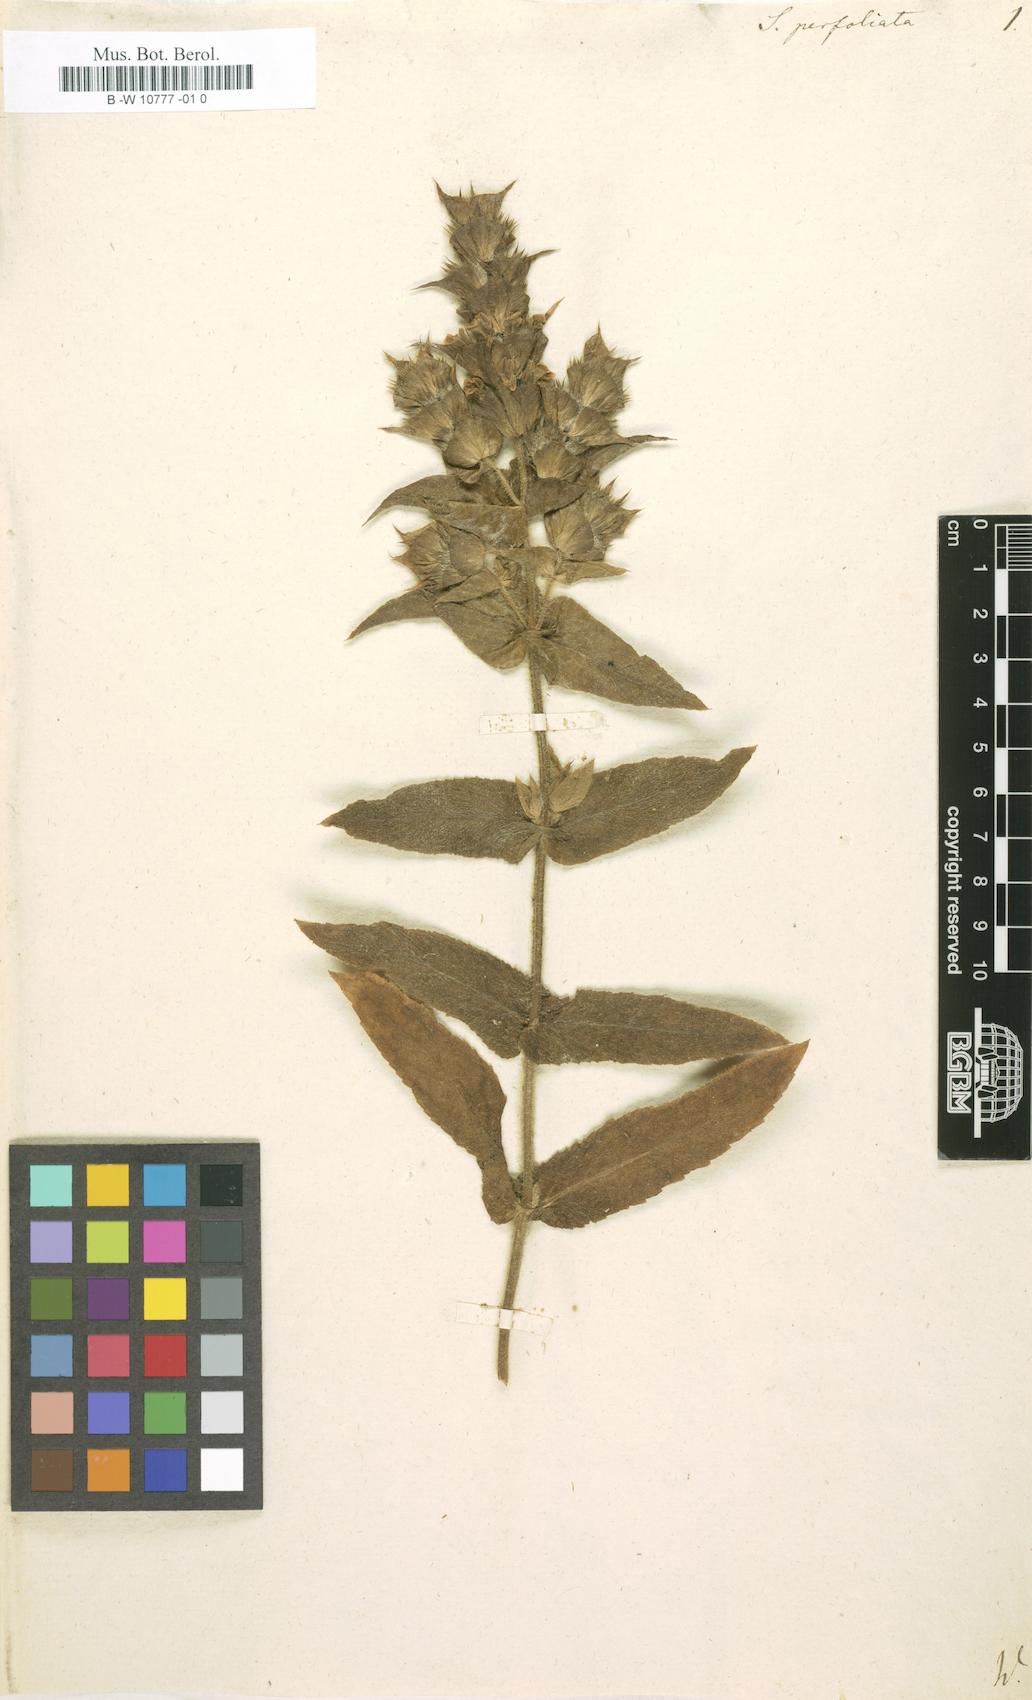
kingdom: Plantae
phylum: Tracheophyta
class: Magnoliopsida
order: Lamiales
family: Lamiaceae
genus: Sideritis
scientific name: Sideritis perfoliata
